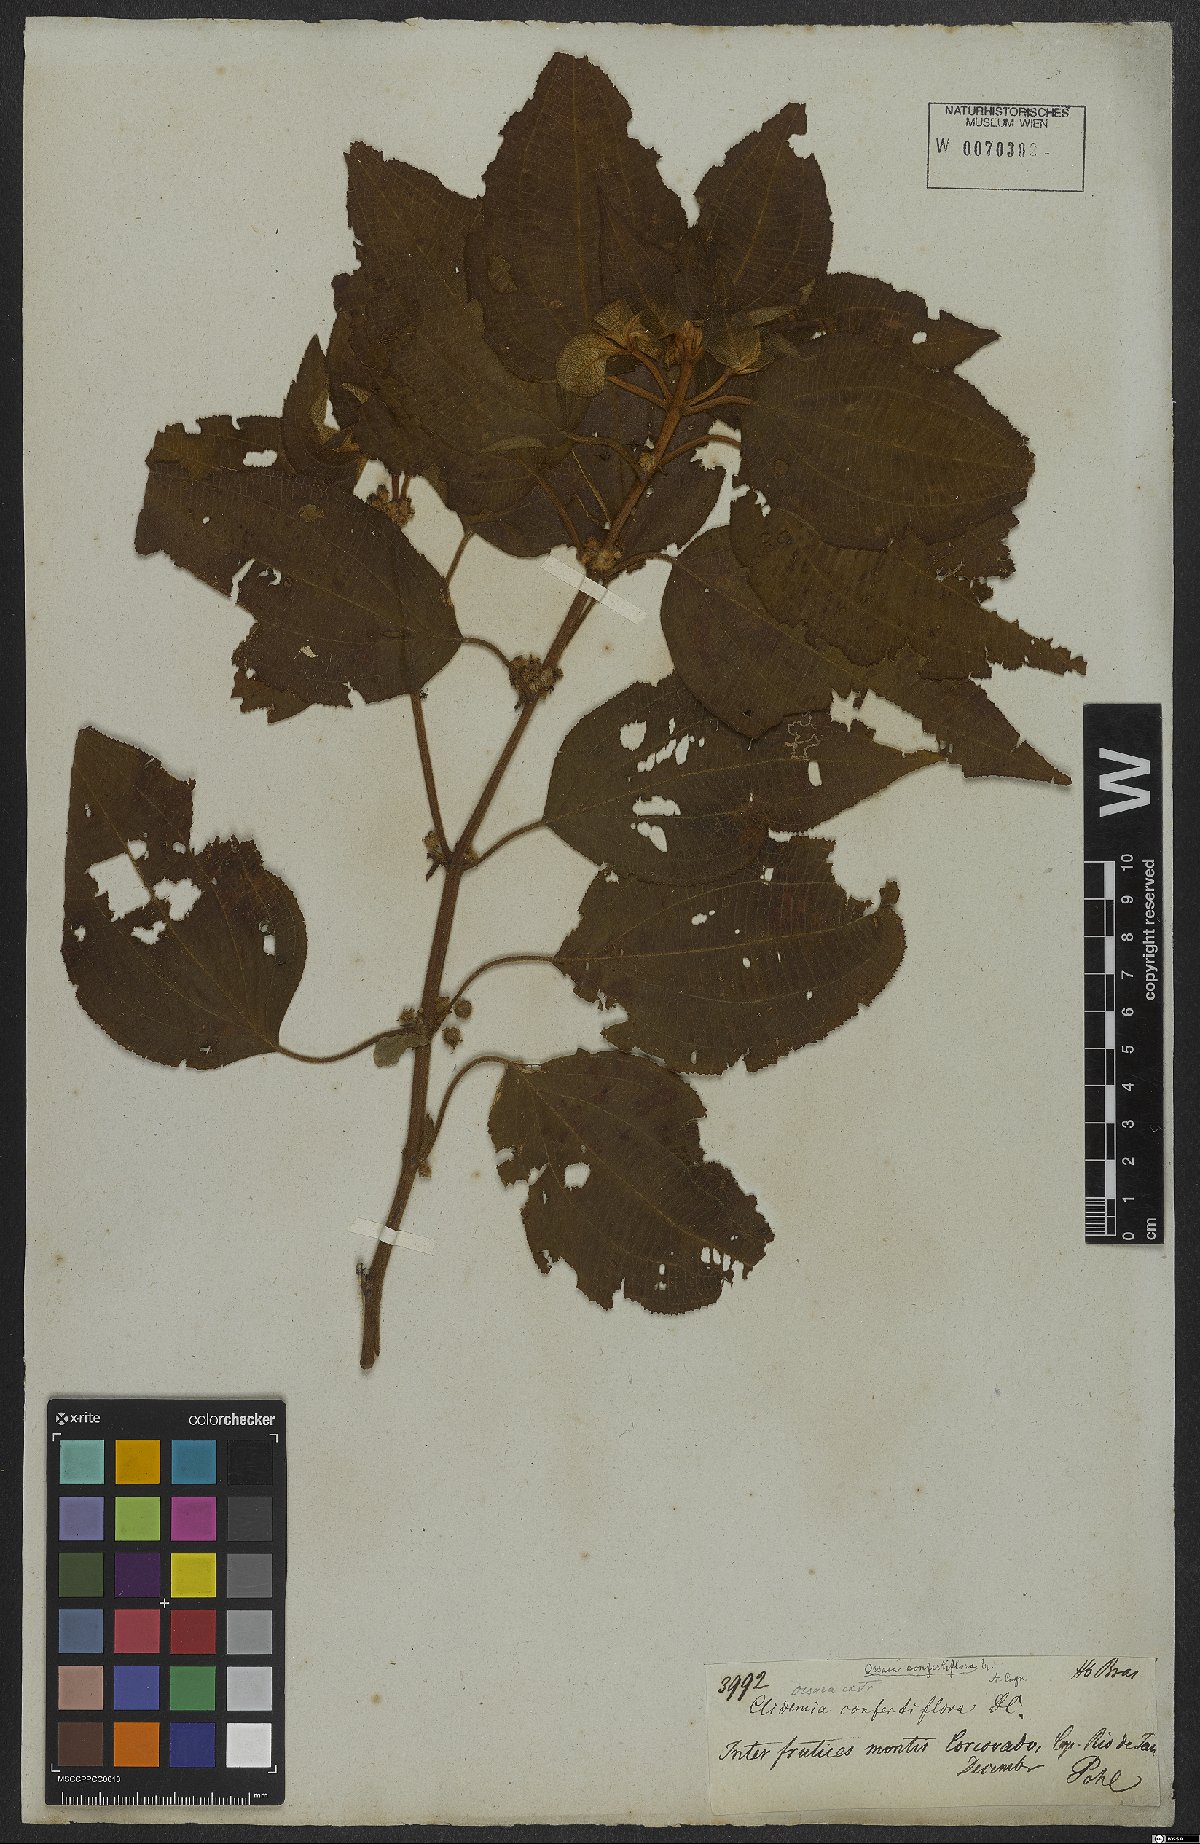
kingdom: Plantae
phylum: Tracheophyta
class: Magnoliopsida
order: Myrtales
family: Melastomataceae
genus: Miconia
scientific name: Miconia rubella
